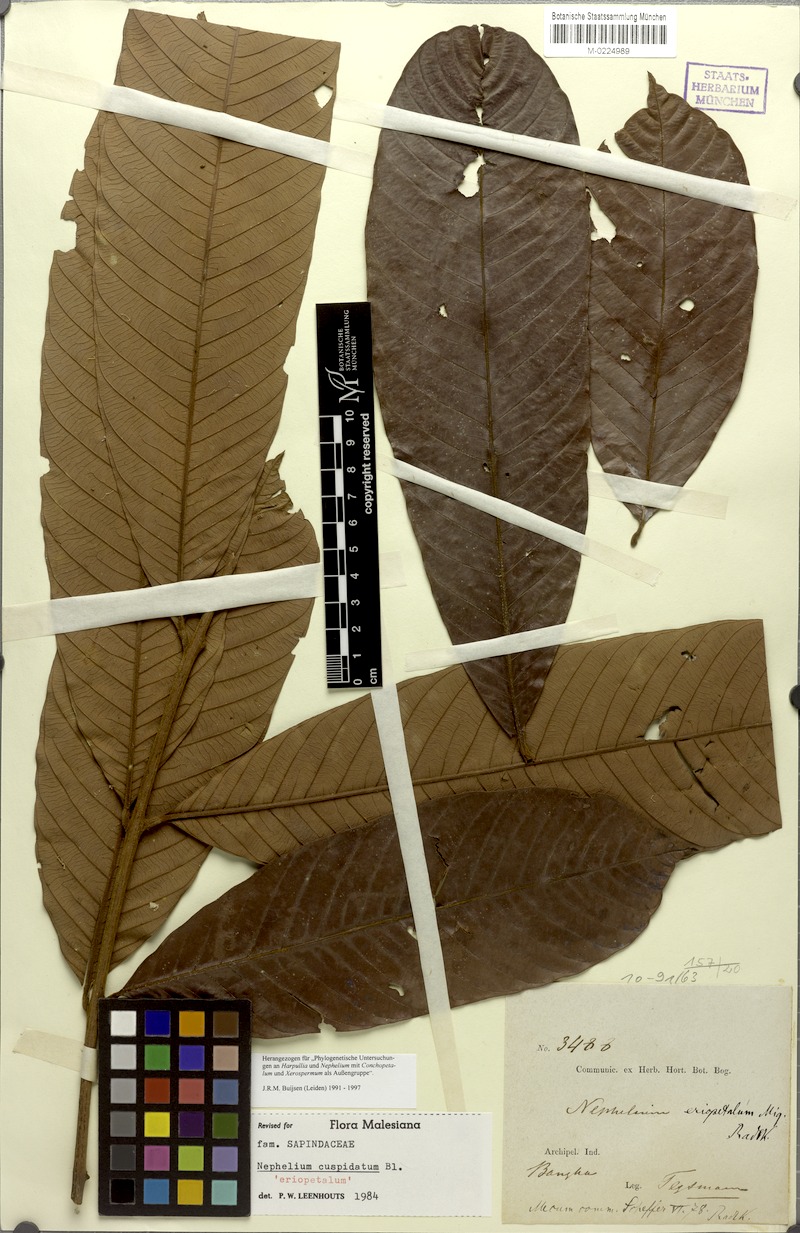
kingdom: Plantae
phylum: Tracheophyta
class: Magnoliopsida
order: Sapindales
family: Sapindaceae
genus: Nephelium
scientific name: Nephelium cuspidatum
